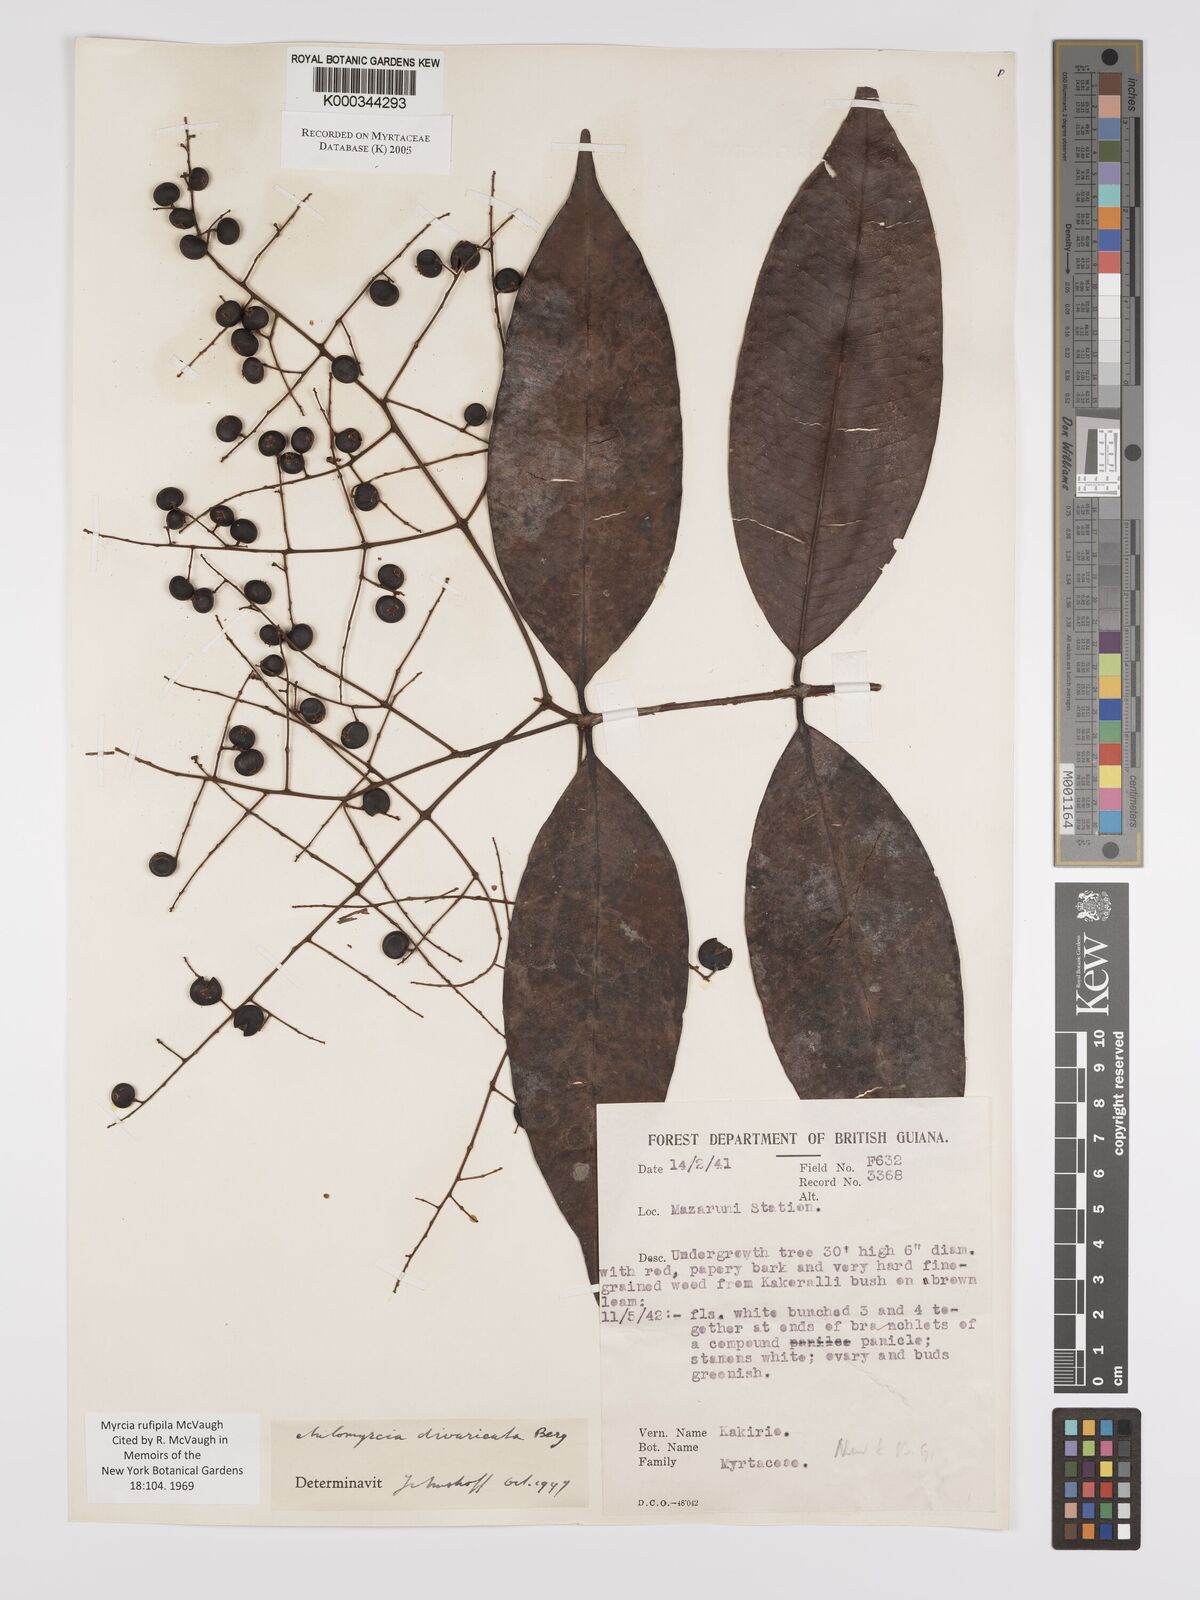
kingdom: Plantae
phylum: Tracheophyta
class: Magnoliopsida
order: Myrtales
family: Myrtaceae
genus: Myrcia
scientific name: Myrcia rufipila
